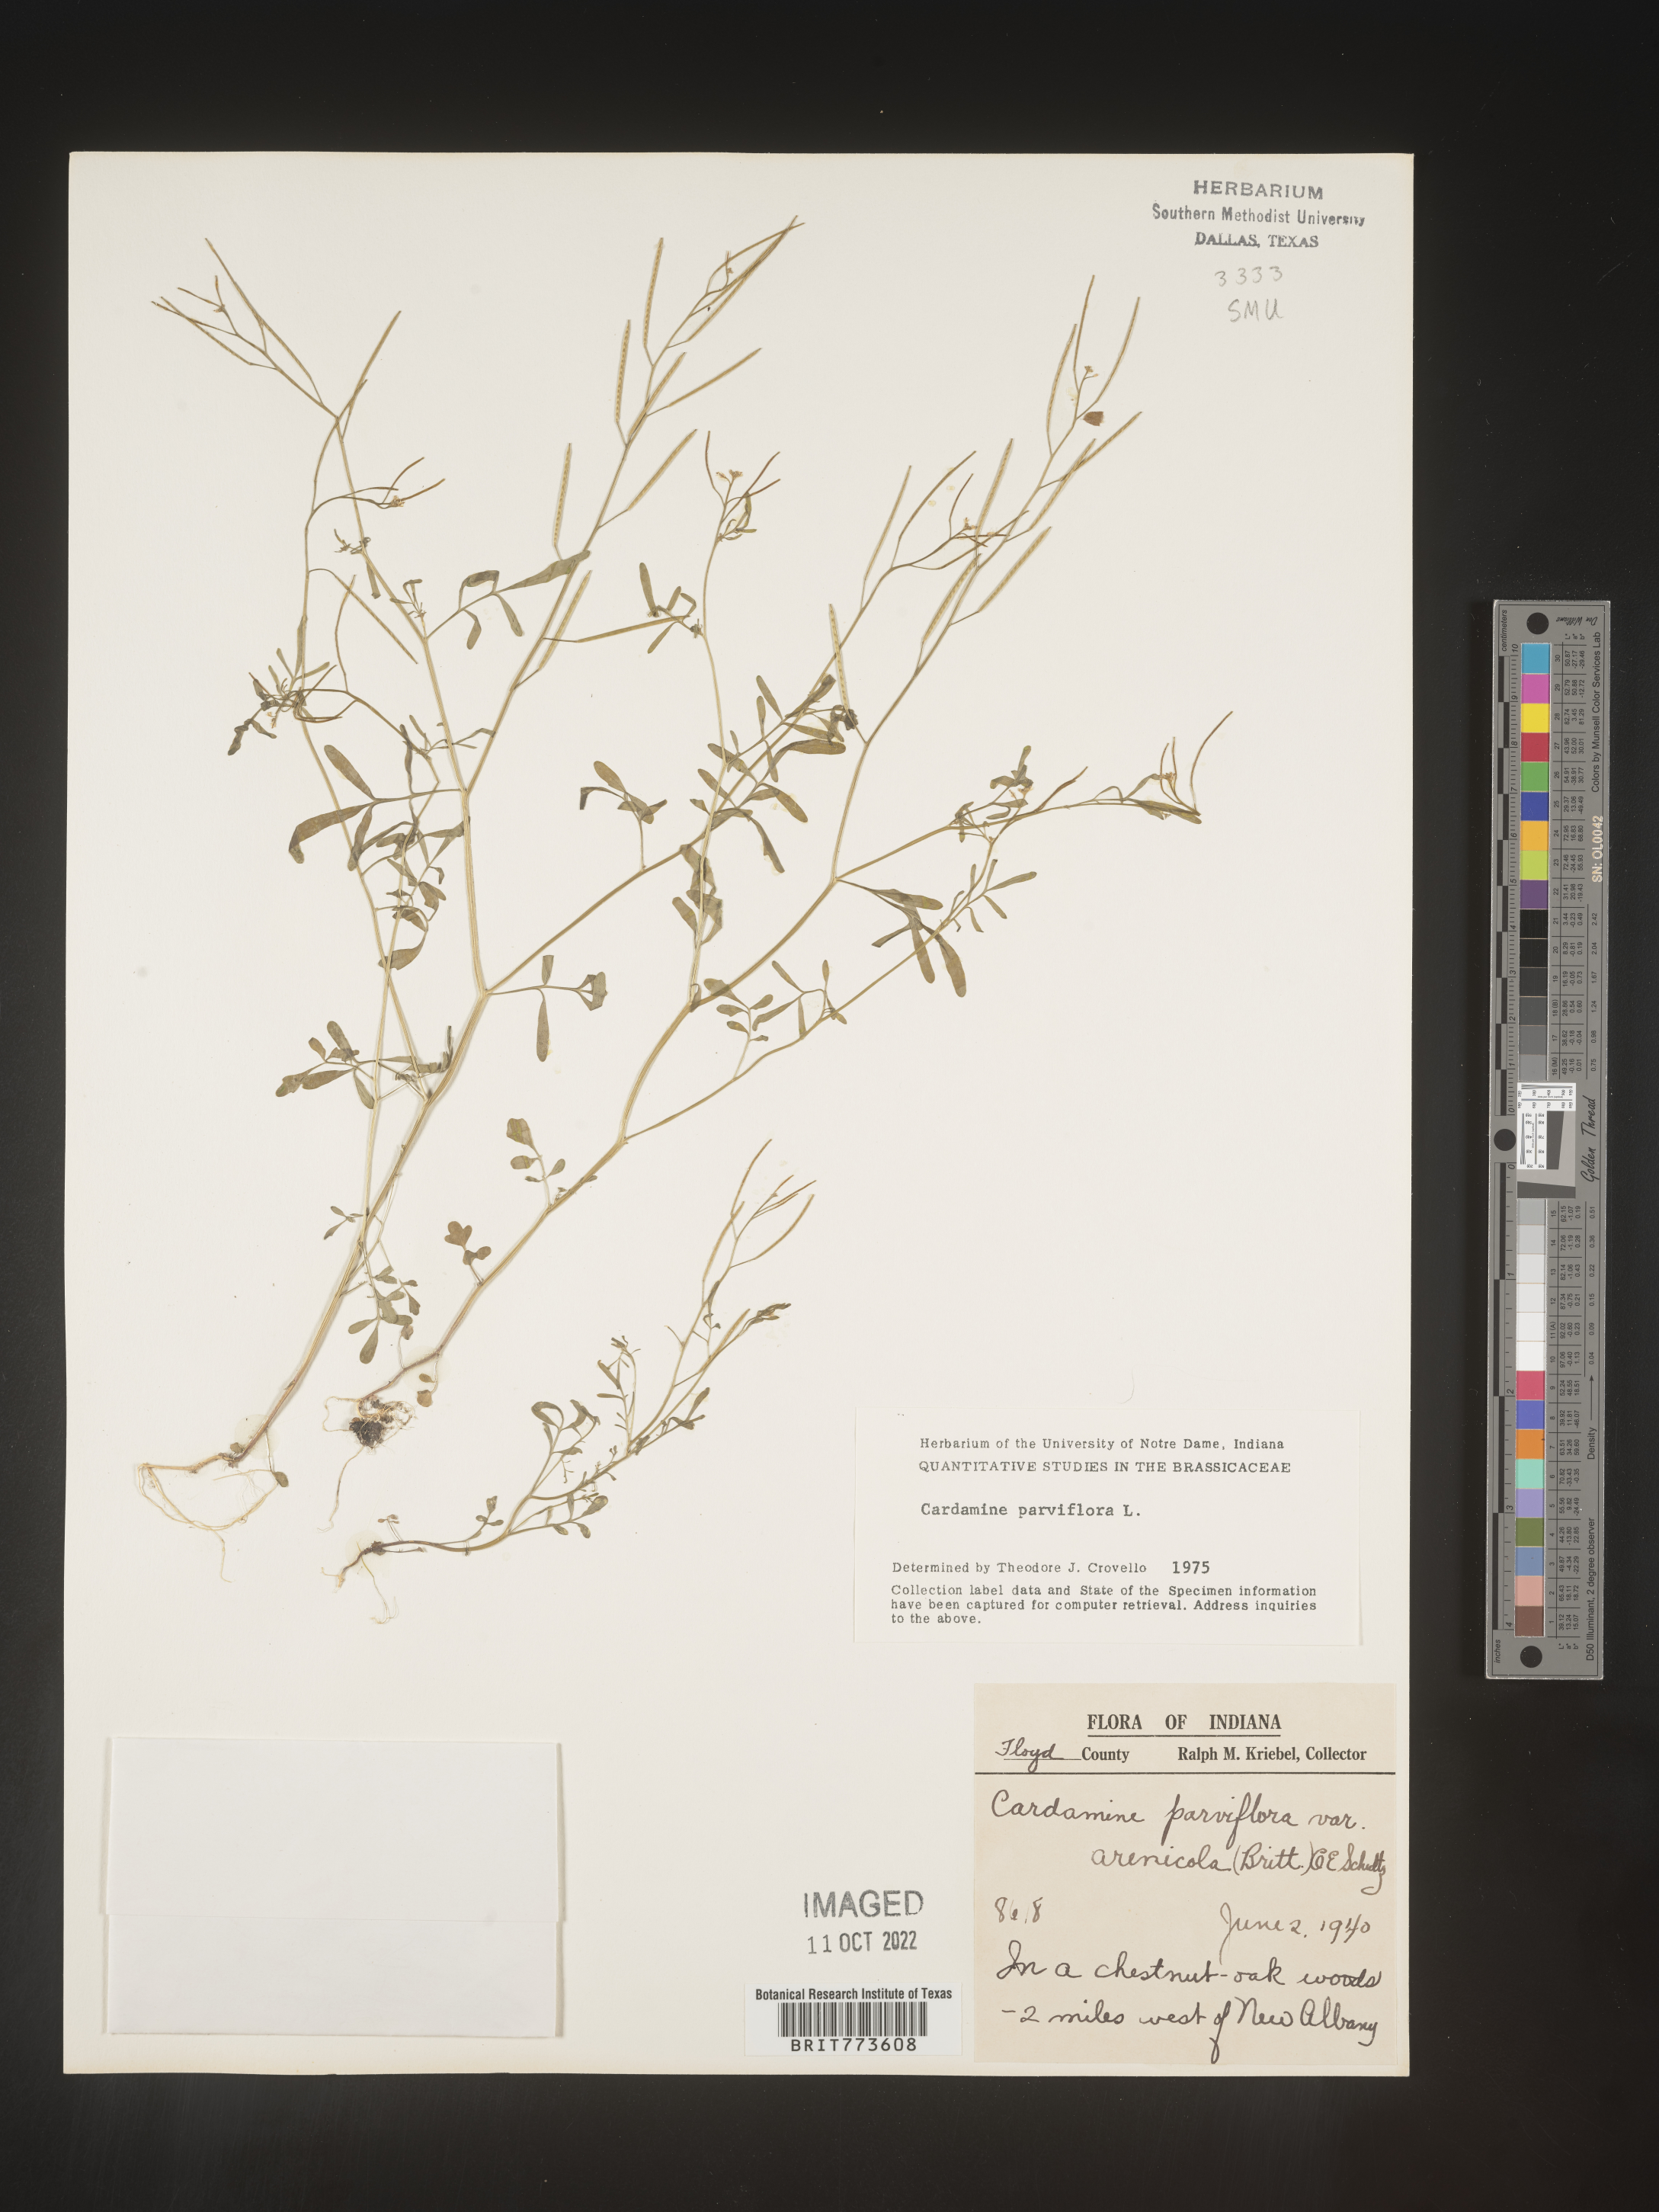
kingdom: Plantae
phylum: Tracheophyta
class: Magnoliopsida
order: Brassicales
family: Brassicaceae
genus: Cardamine
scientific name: Cardamine parviflora
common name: Sand bittercress
